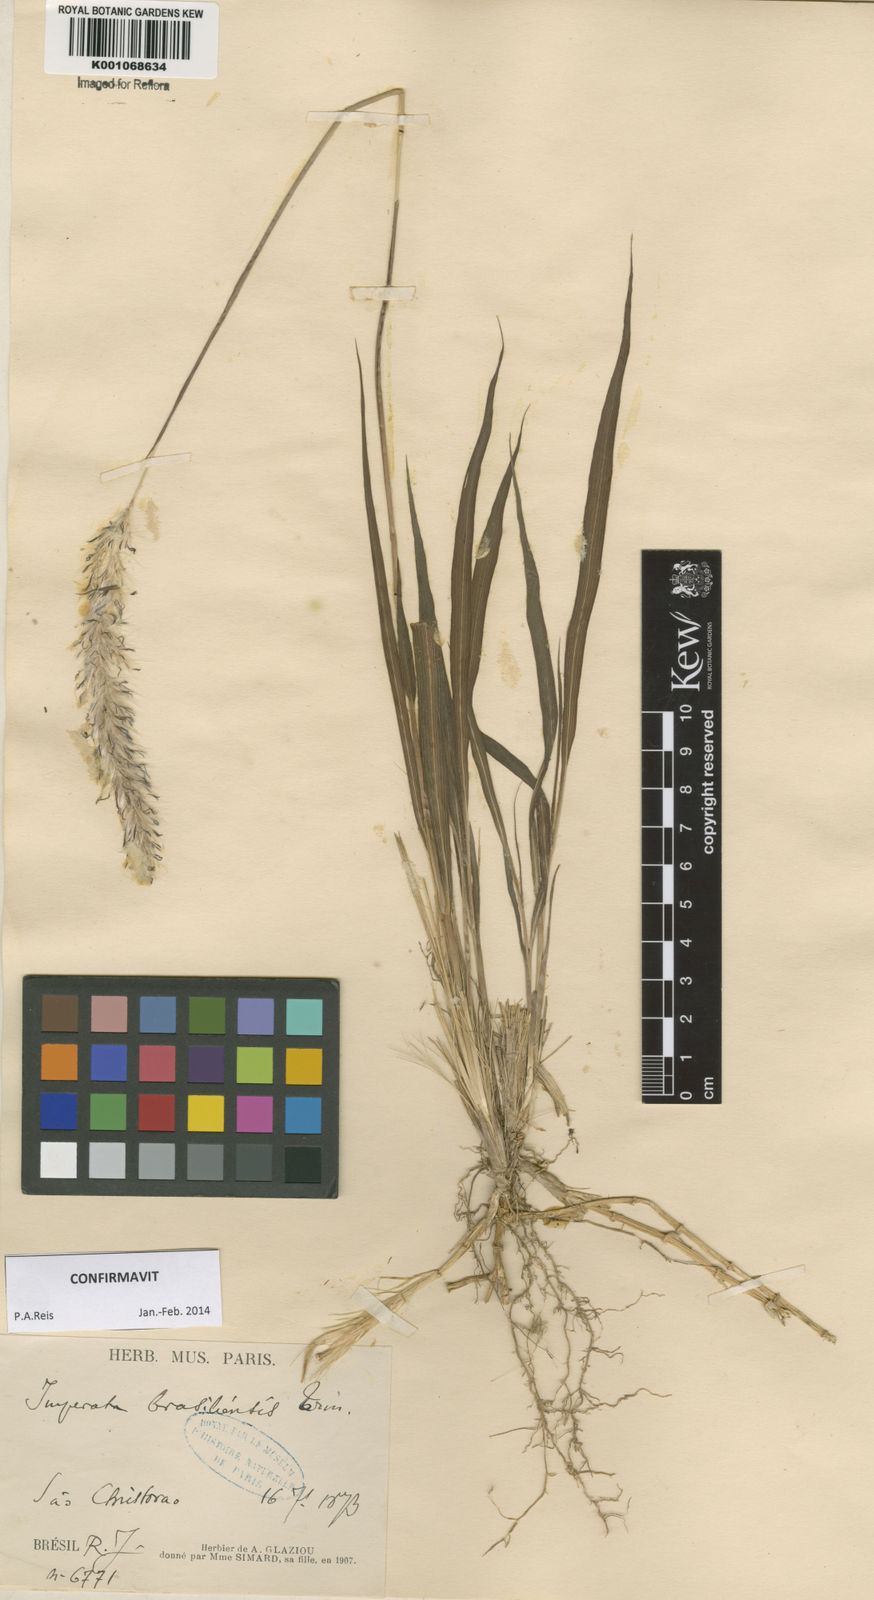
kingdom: Plantae
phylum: Tracheophyta
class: Liliopsida
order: Poales
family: Poaceae
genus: Imperata
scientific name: Imperata brasiliensis
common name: Brazilian satintail
